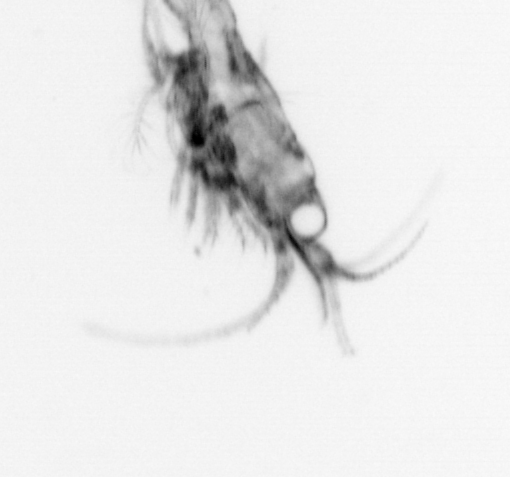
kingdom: Animalia
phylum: Arthropoda
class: Malacostraca
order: Decapoda
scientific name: Decapoda
